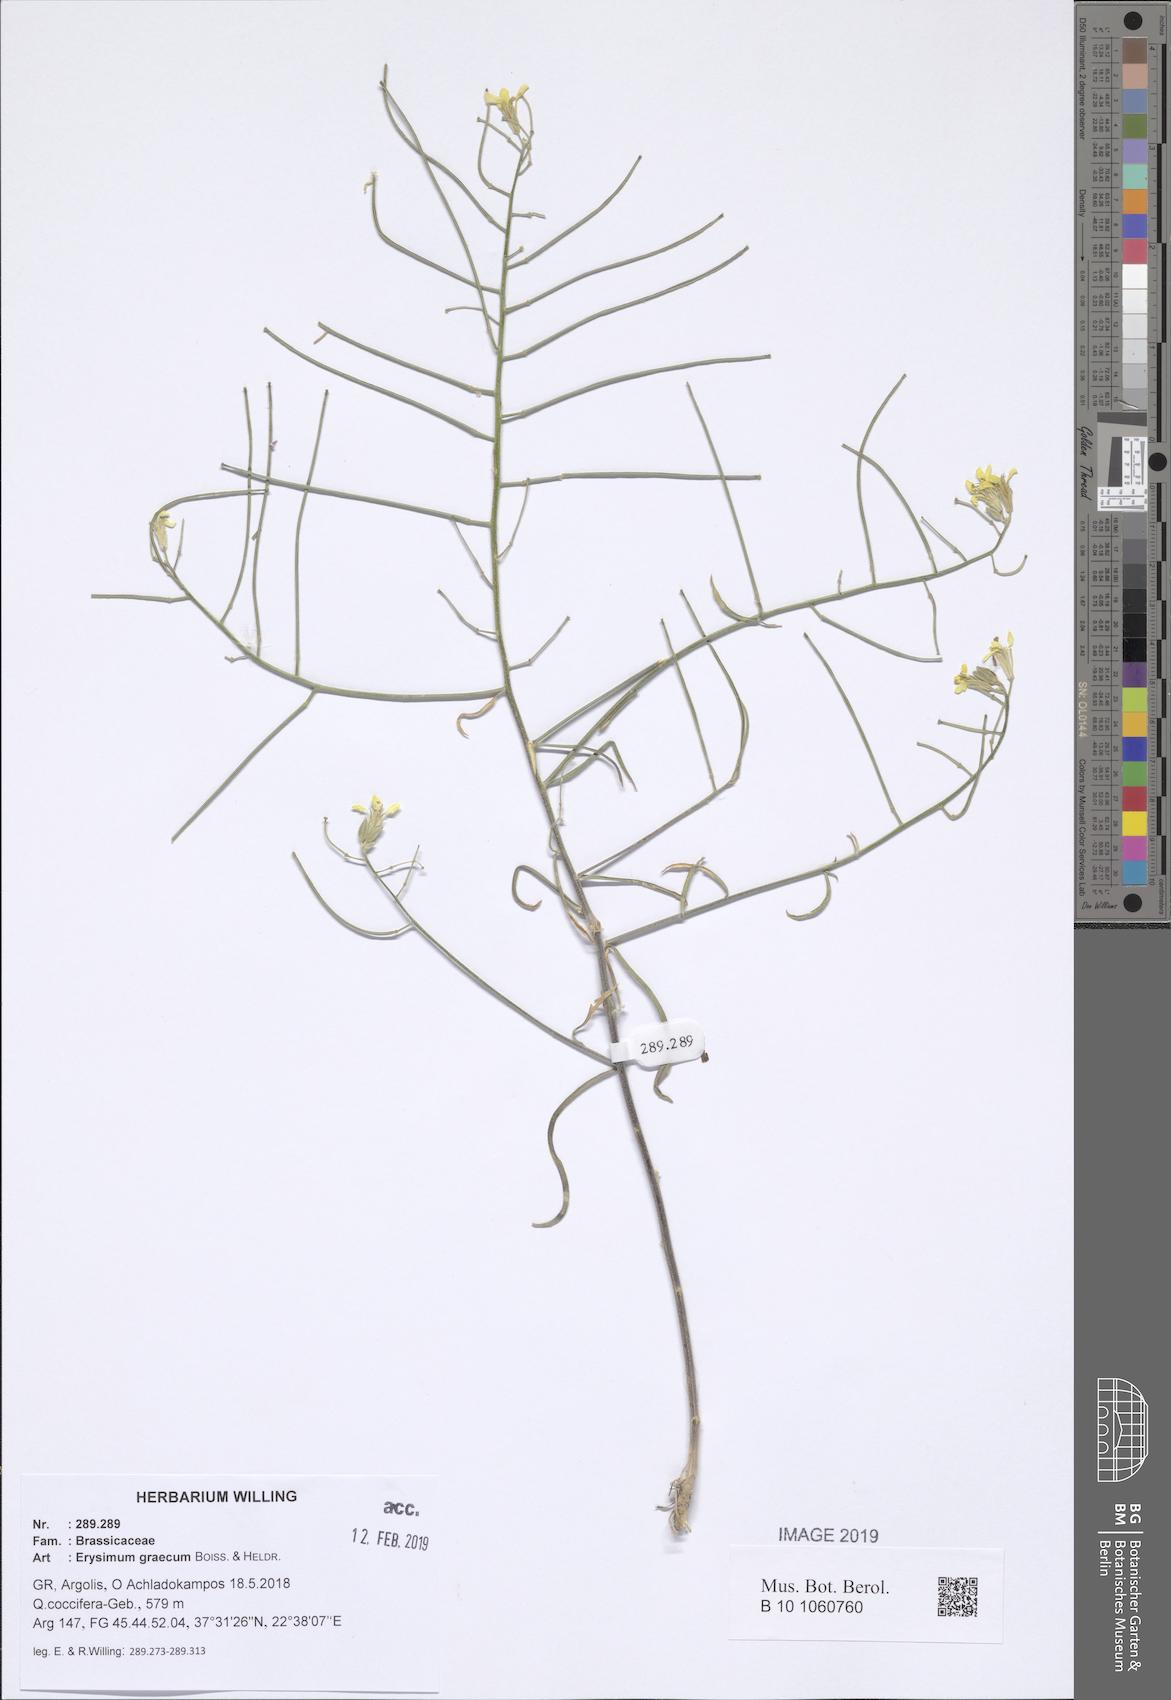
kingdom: Plantae
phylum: Tracheophyta
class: Magnoliopsida
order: Brassicales
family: Brassicaceae
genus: Erysimum
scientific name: Erysimum graecum
